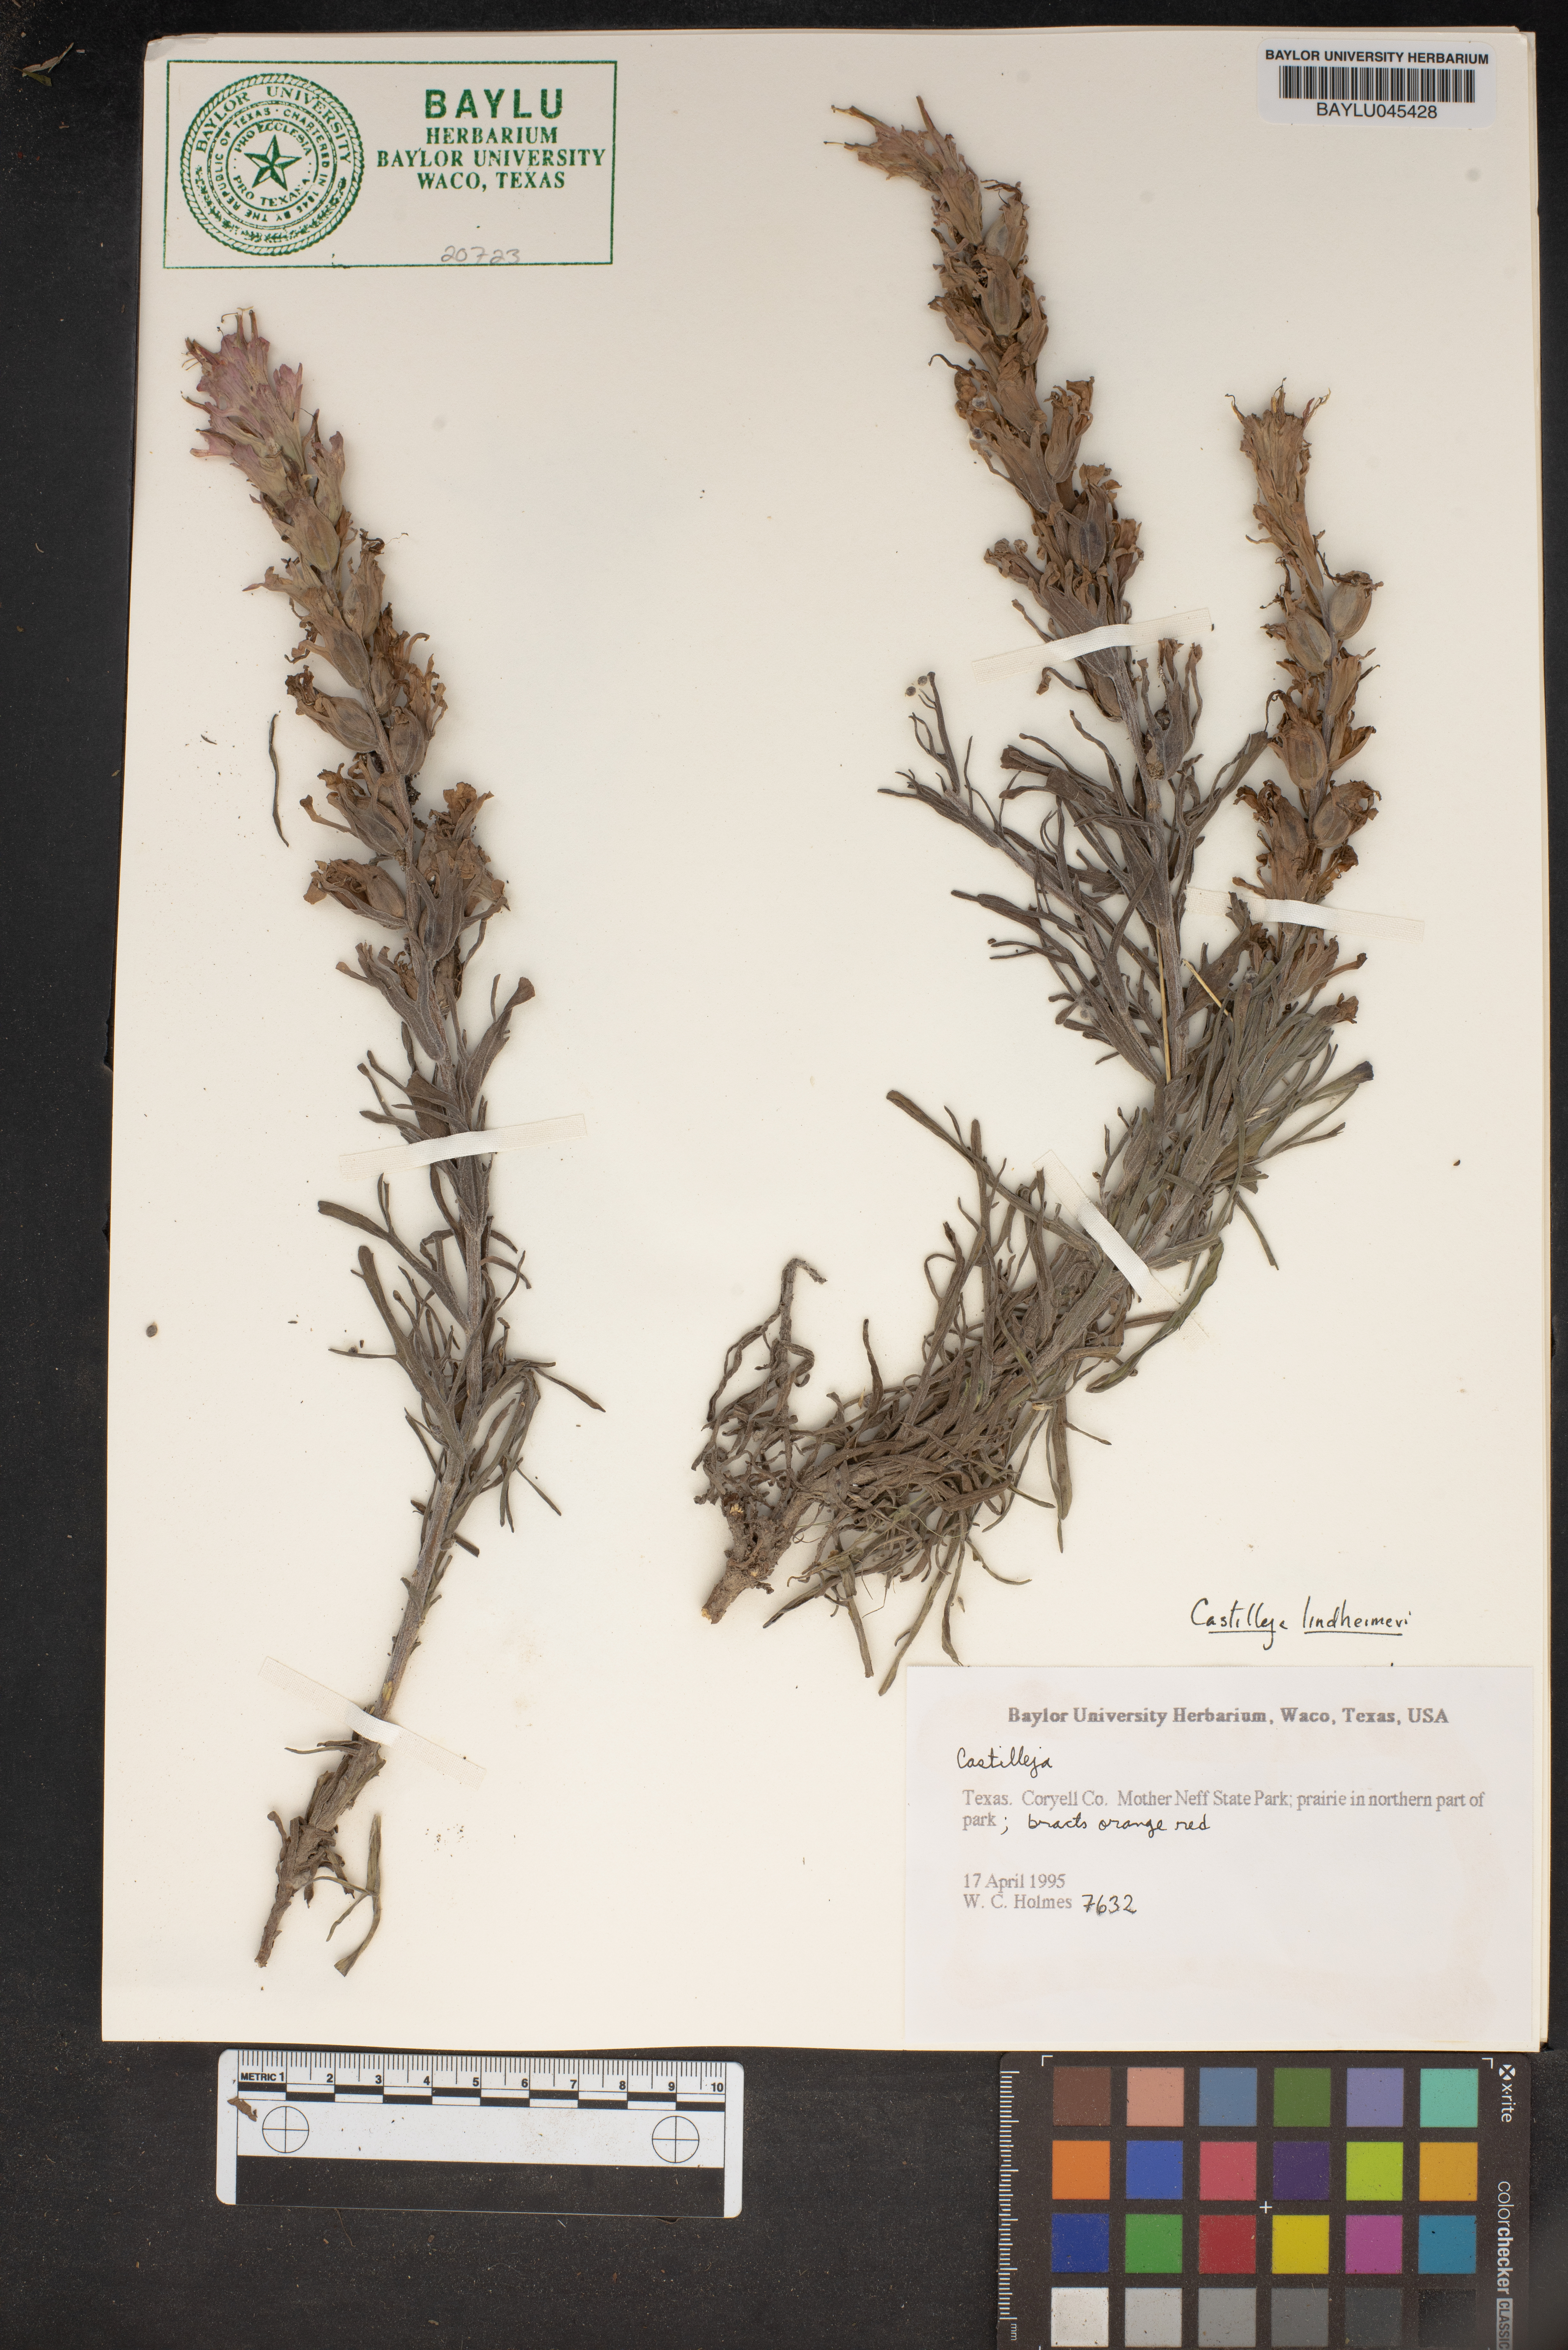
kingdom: Plantae
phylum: Tracheophyta
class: Magnoliopsida
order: Lamiales
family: Orobanchaceae
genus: Castilleja
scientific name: Castilleja
